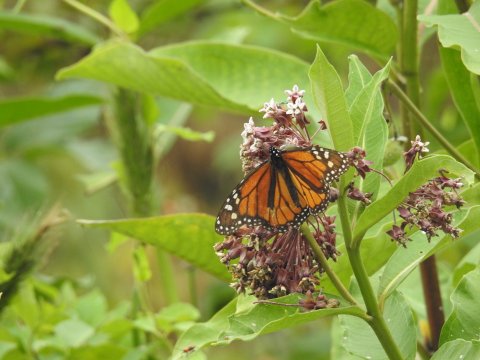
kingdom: Animalia
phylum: Arthropoda
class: Insecta
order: Lepidoptera
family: Nymphalidae
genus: Danaus
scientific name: Danaus plexippus
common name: Monarch
